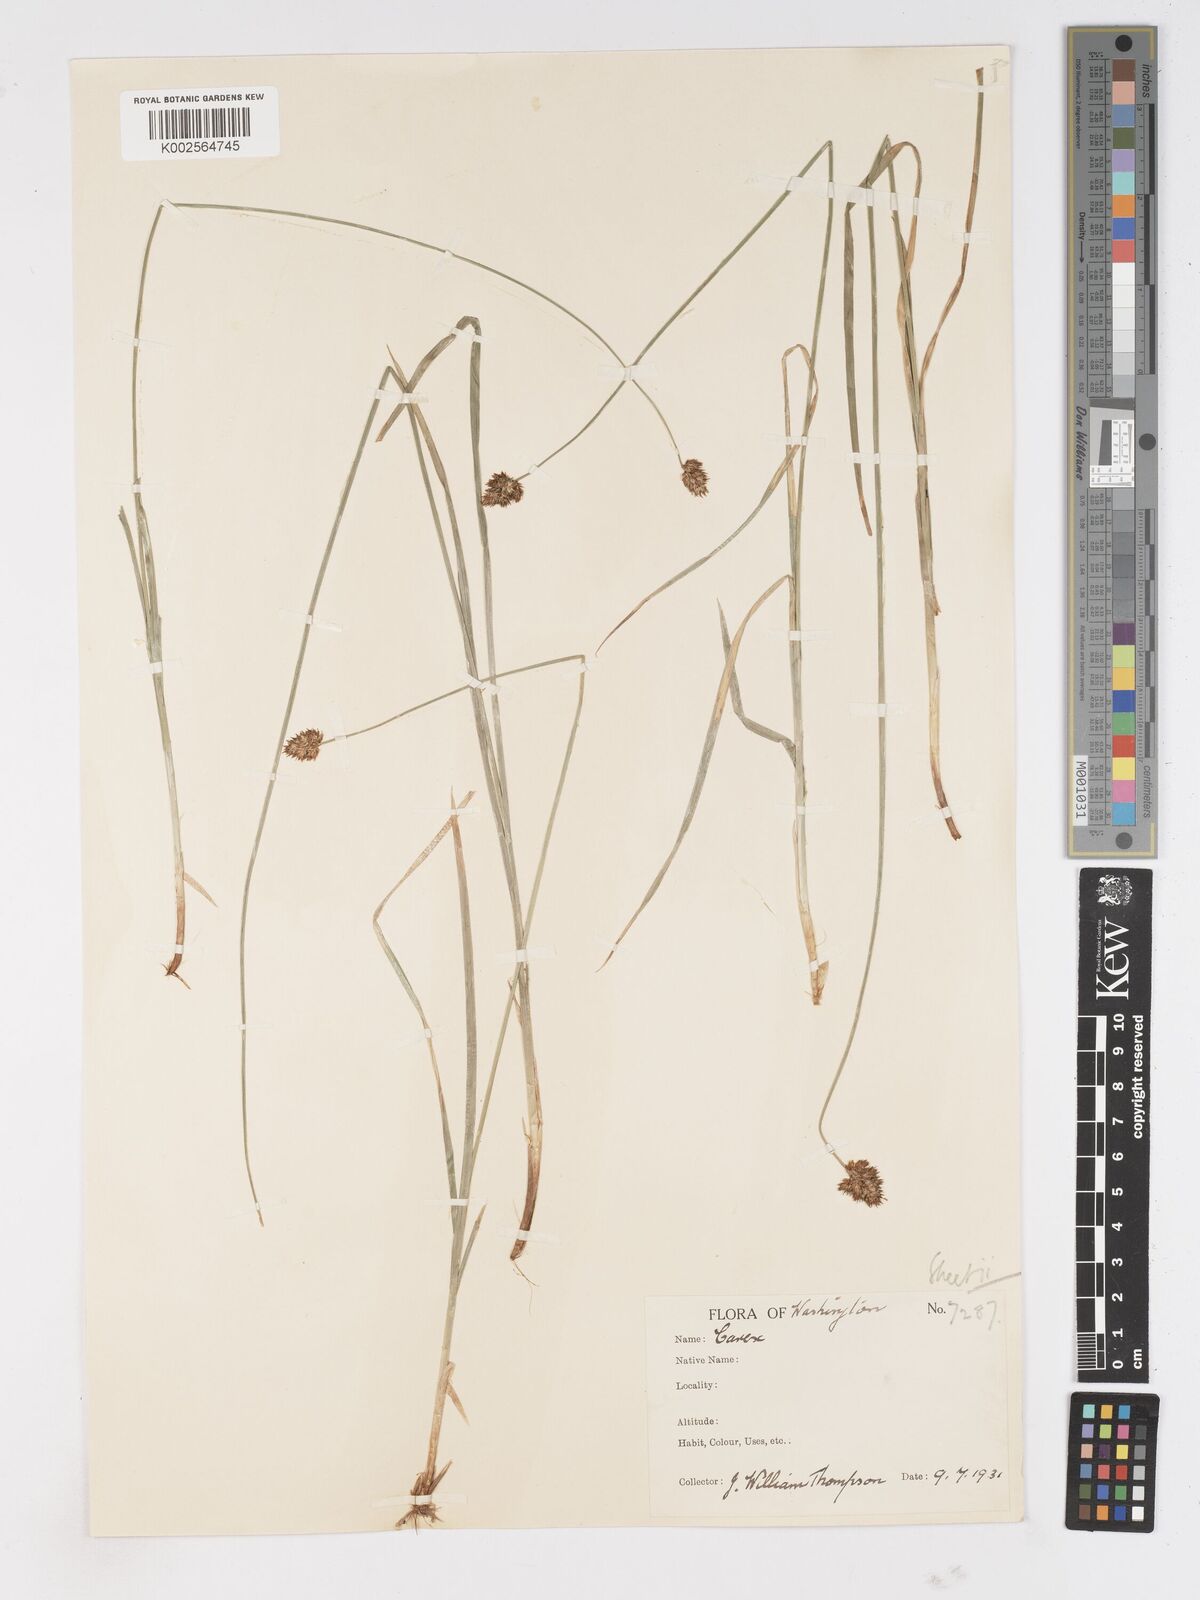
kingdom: Plantae
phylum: Tracheophyta
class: Liliopsida
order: Poales
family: Cyperaceae
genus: Carex
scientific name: Carex
